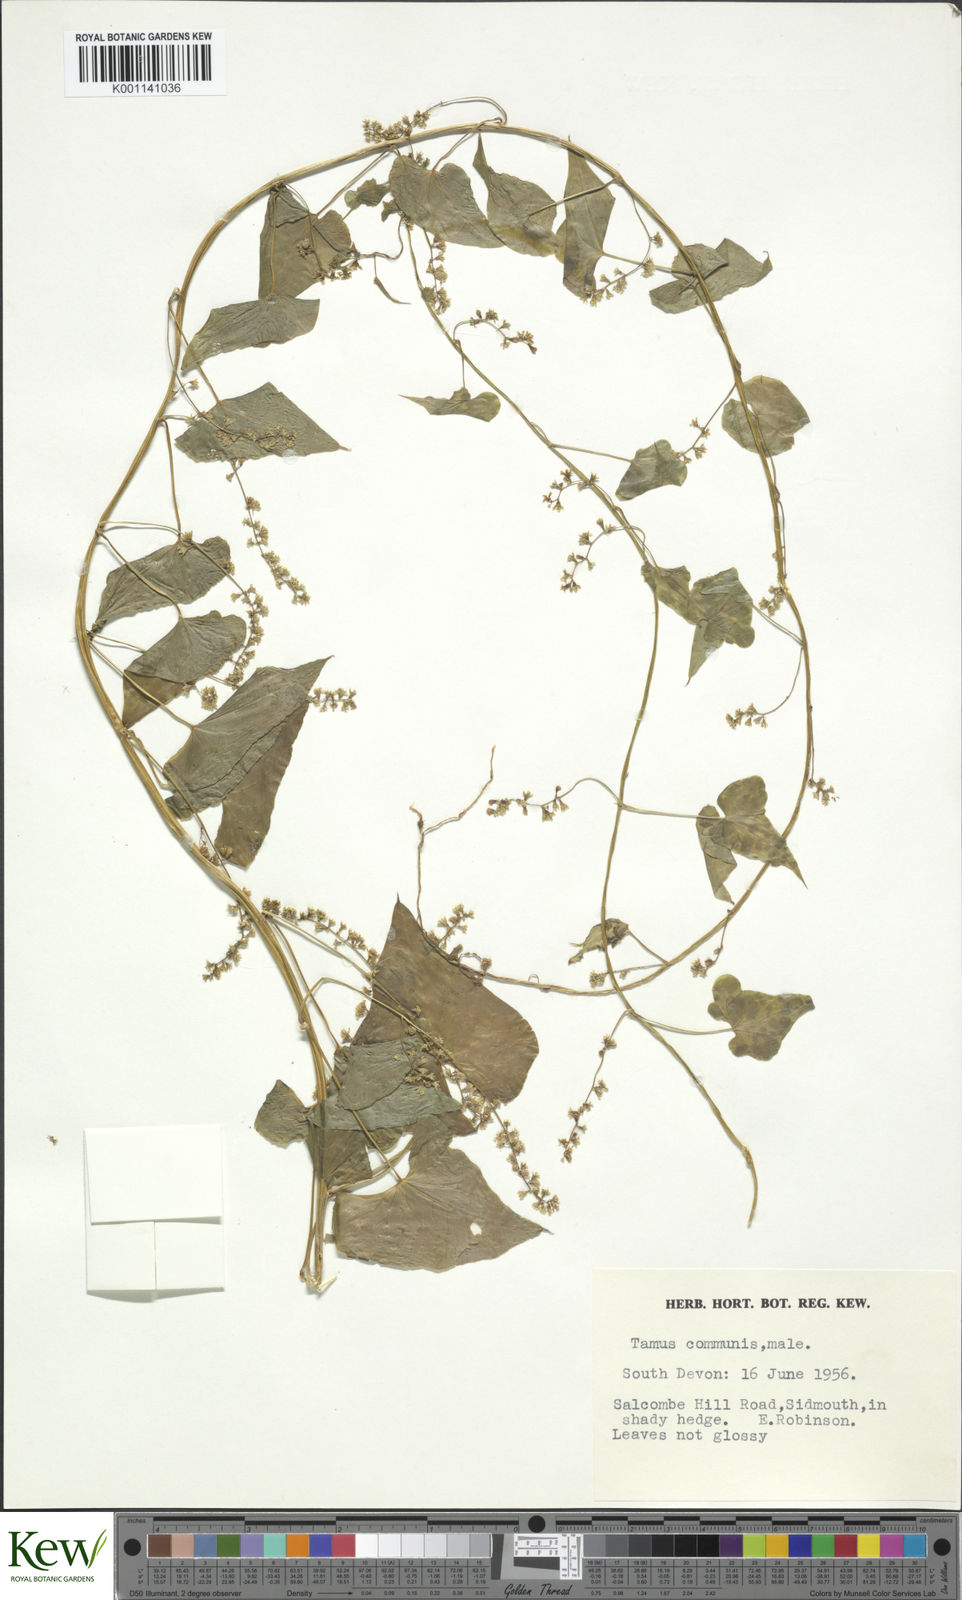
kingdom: Plantae
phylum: Tracheophyta
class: Liliopsida
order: Dioscoreales
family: Dioscoreaceae
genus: Dioscorea
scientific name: Dioscorea communis
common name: Black-bindweed
